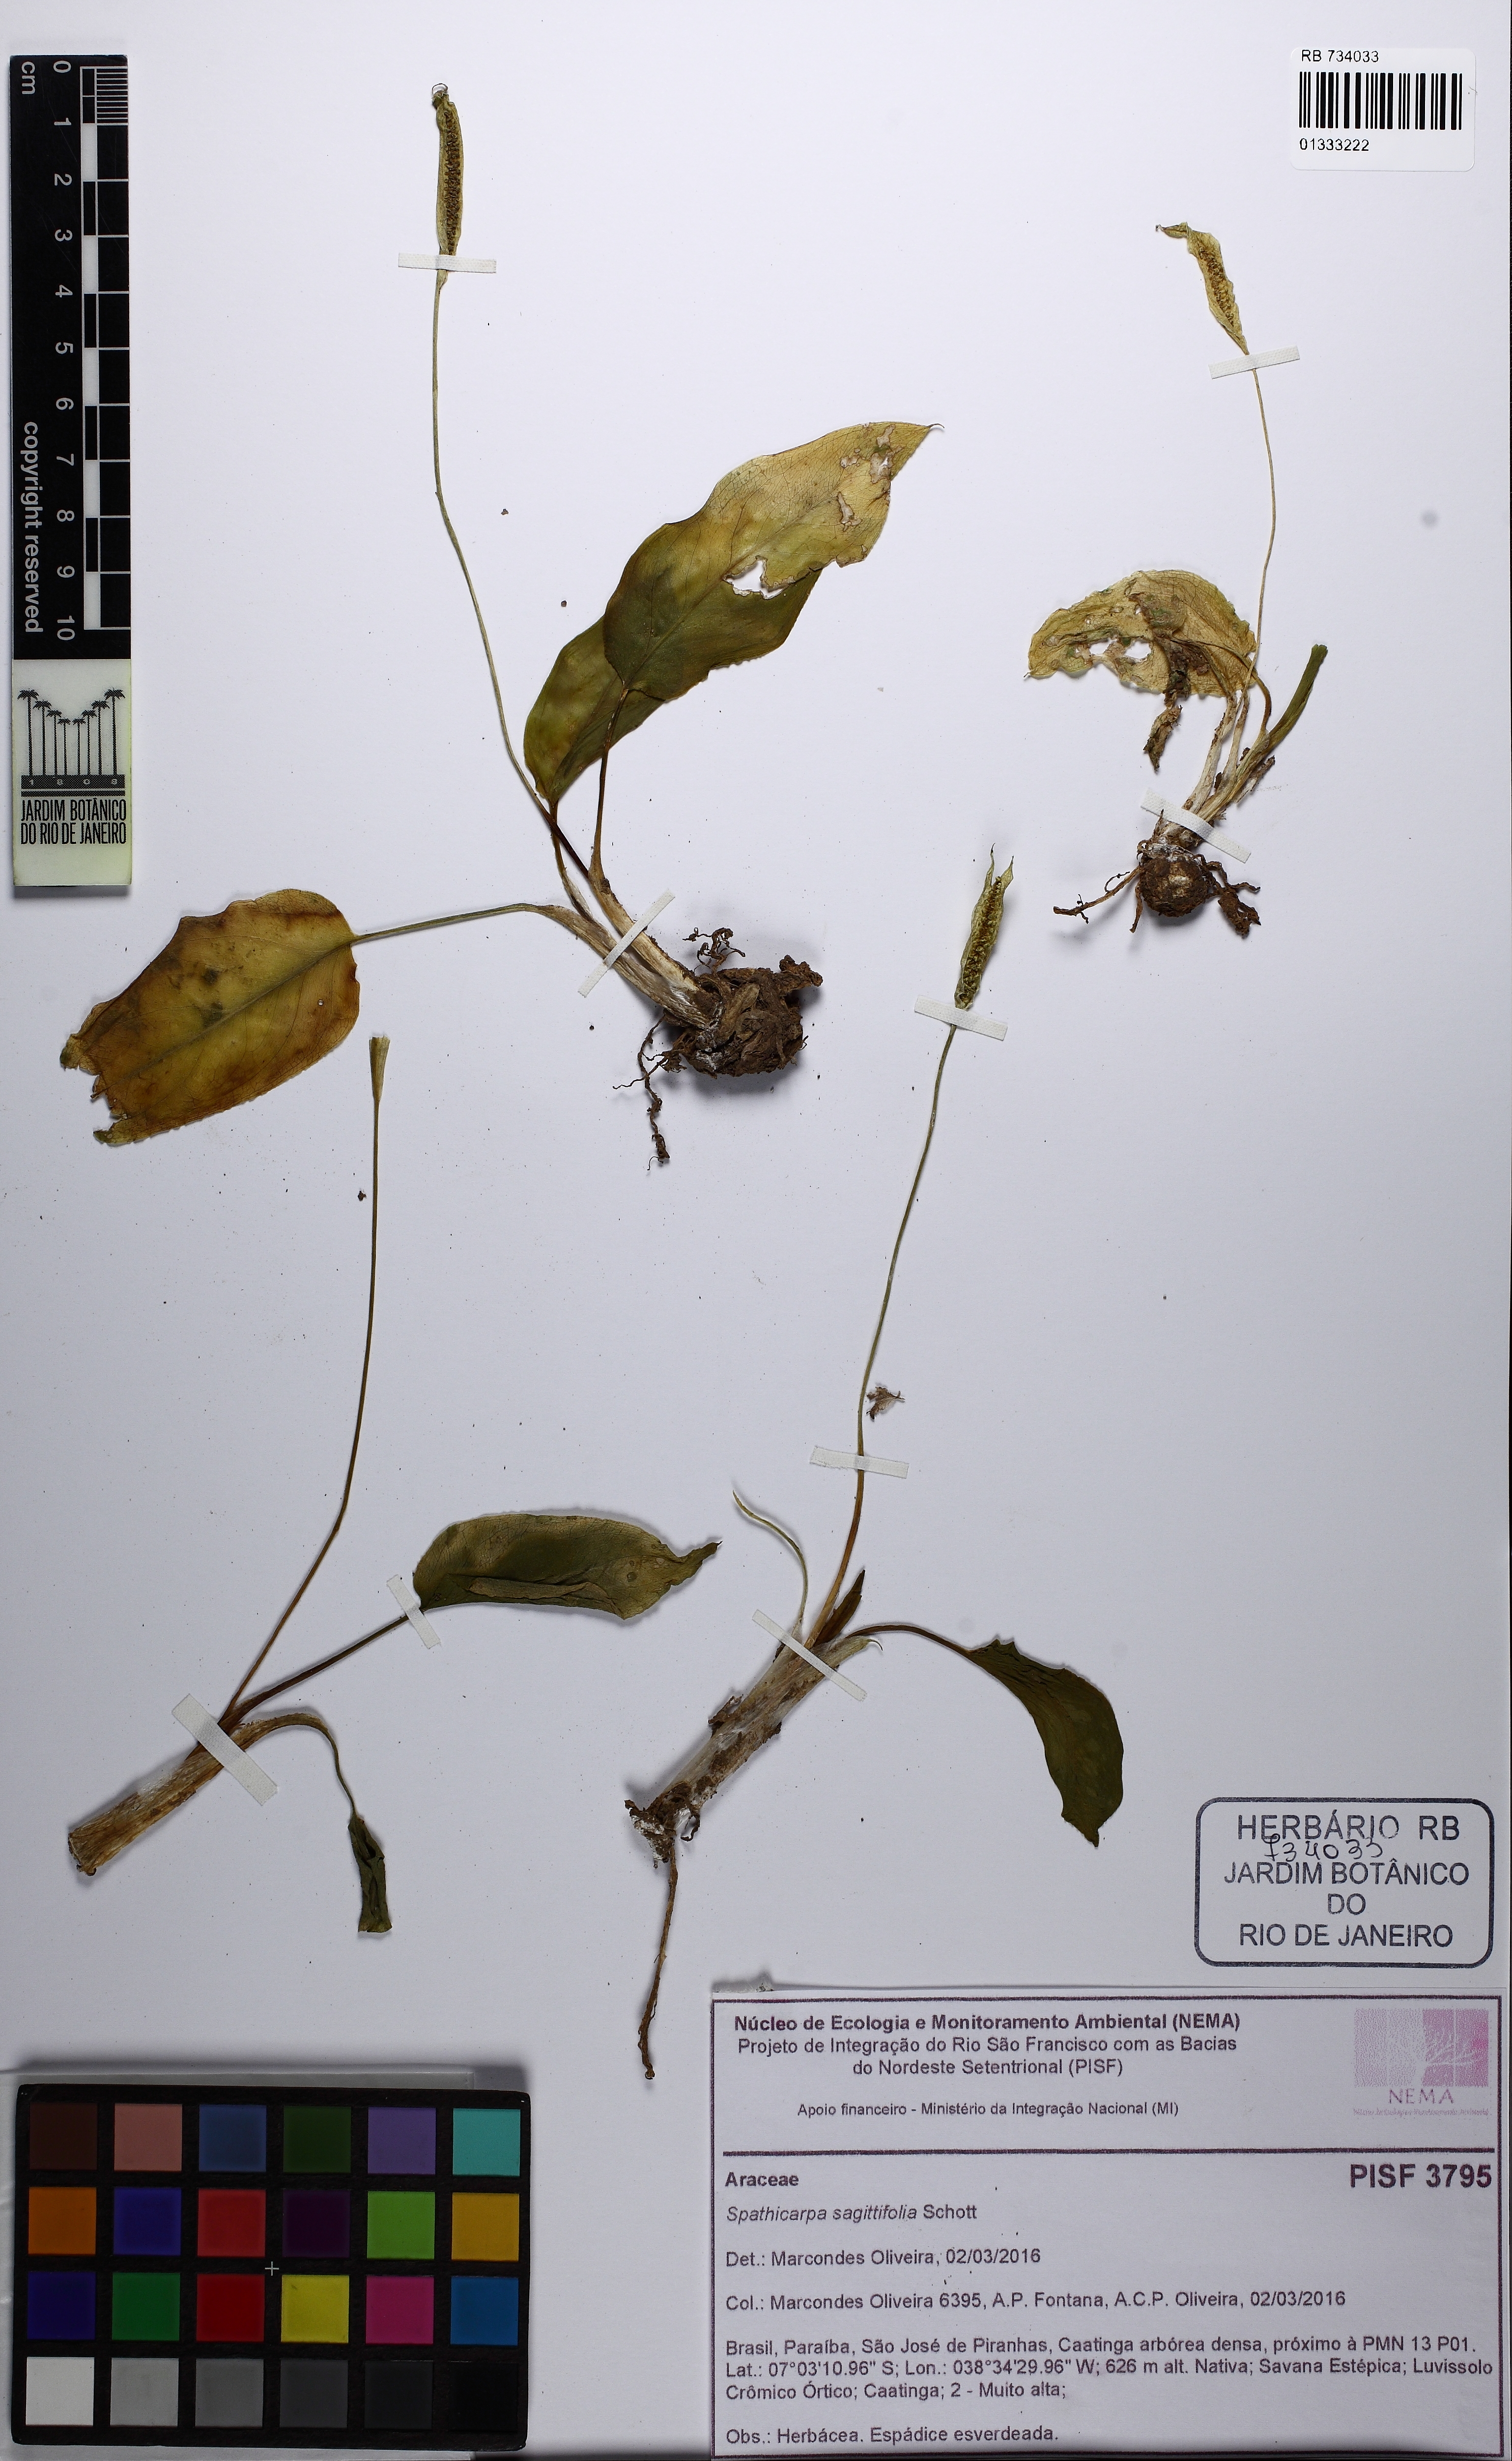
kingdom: Plantae
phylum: Tracheophyta
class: Liliopsida
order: Alismatales
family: Araceae
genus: Spathicarpa
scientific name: Spathicarpa hastifolia
